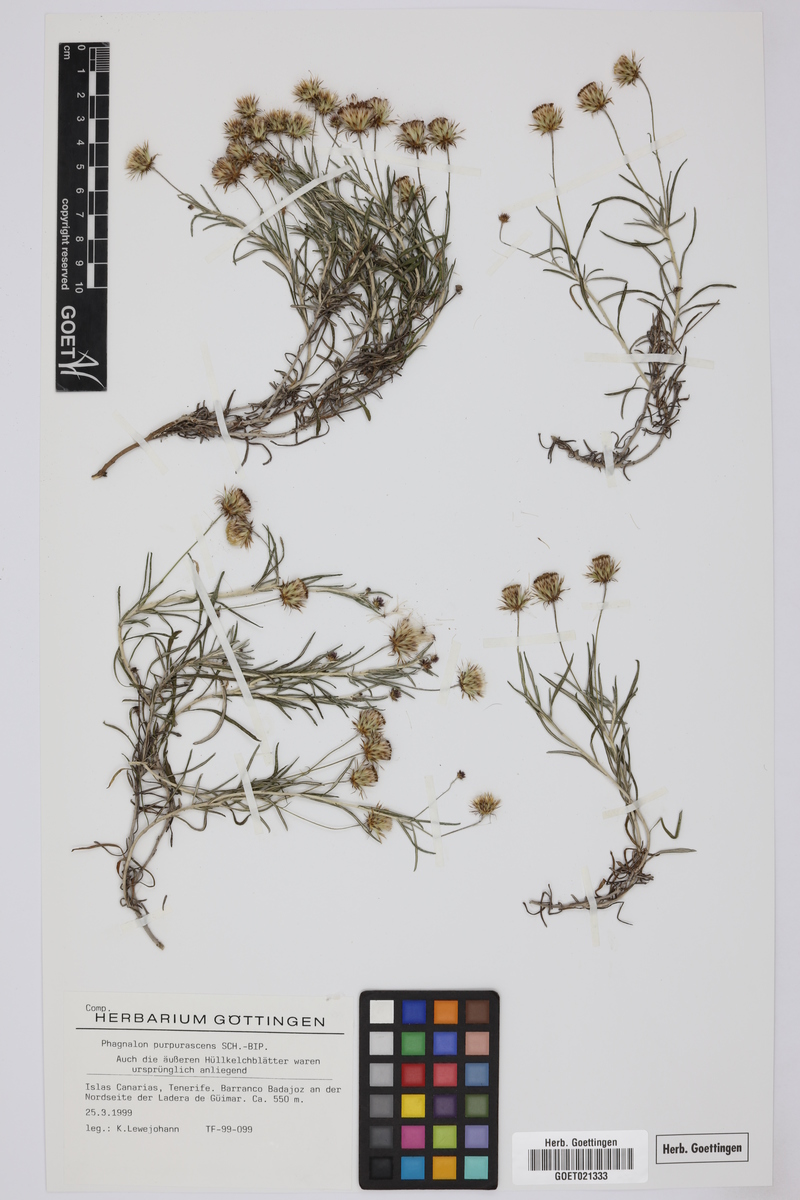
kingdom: Plantae
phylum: Tracheophyta
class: Magnoliopsida
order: Asterales
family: Asteraceae
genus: Phagnalon
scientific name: Phagnalon purpurascens
